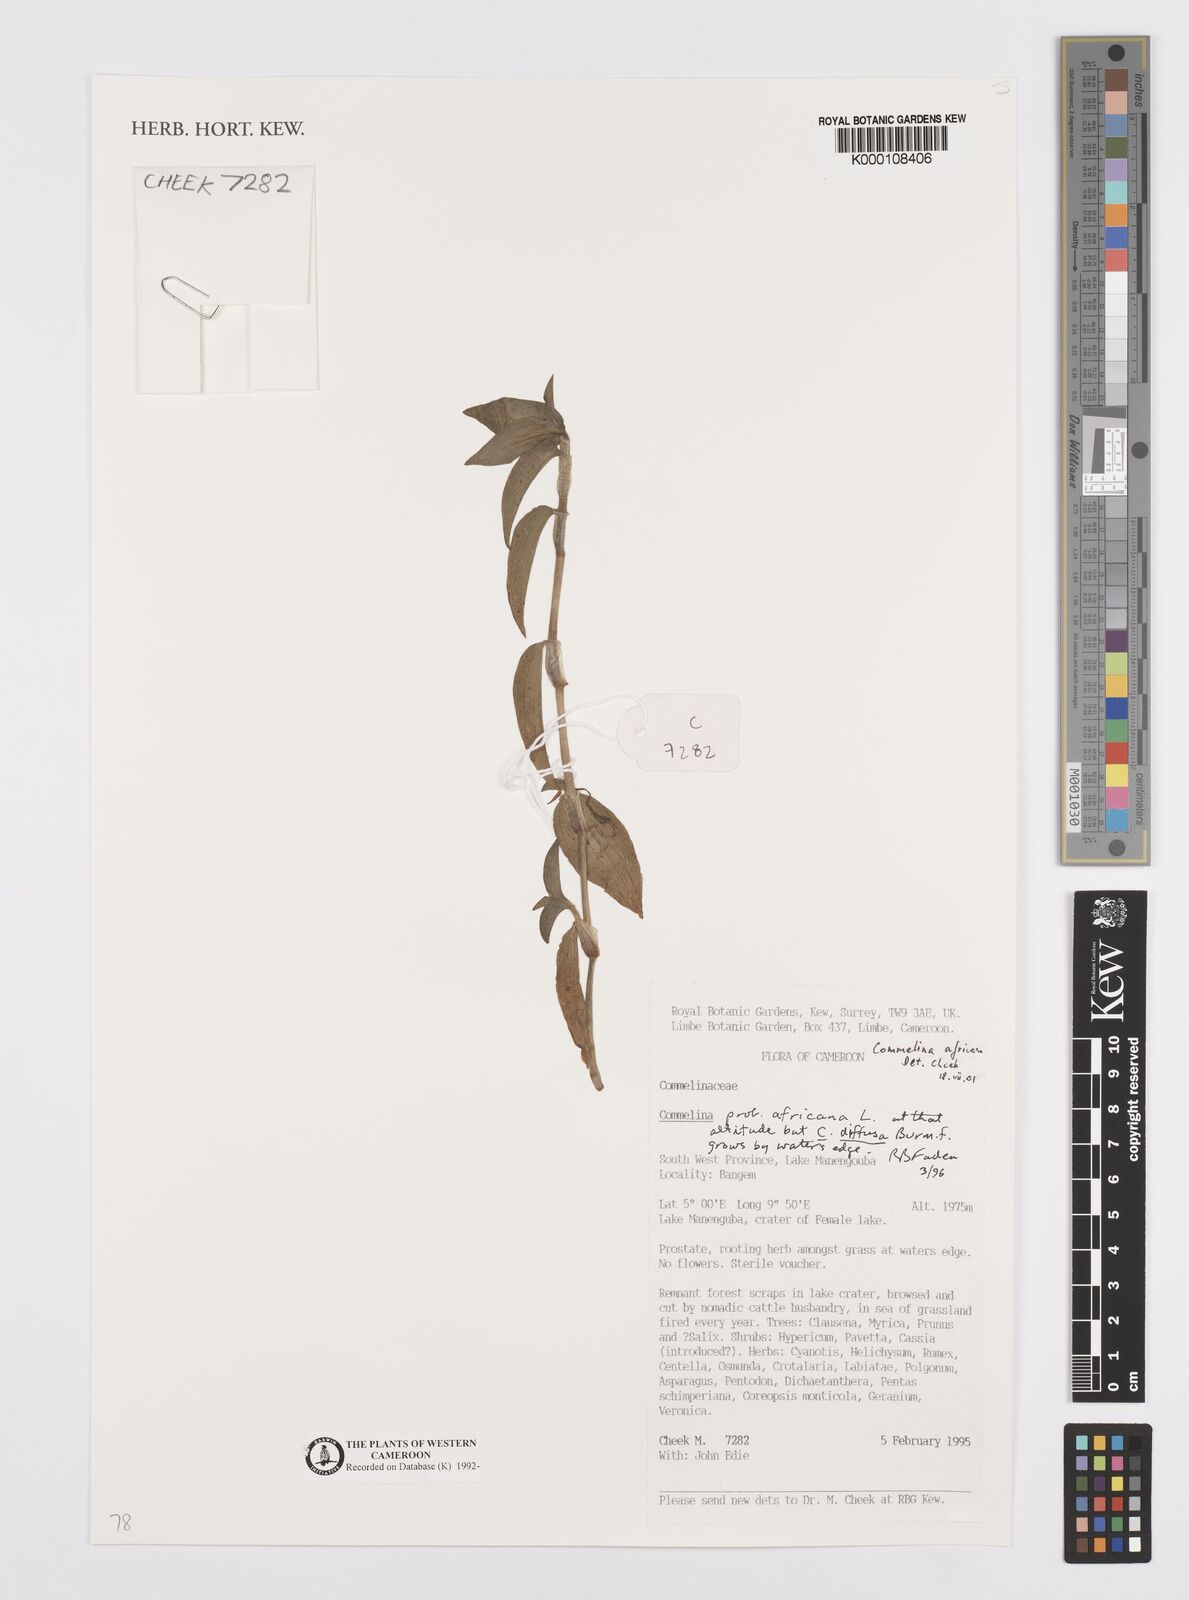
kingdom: Plantae
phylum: Tracheophyta
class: Liliopsida
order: Commelinales
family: Commelinaceae
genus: Commelina
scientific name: Commelina africana
